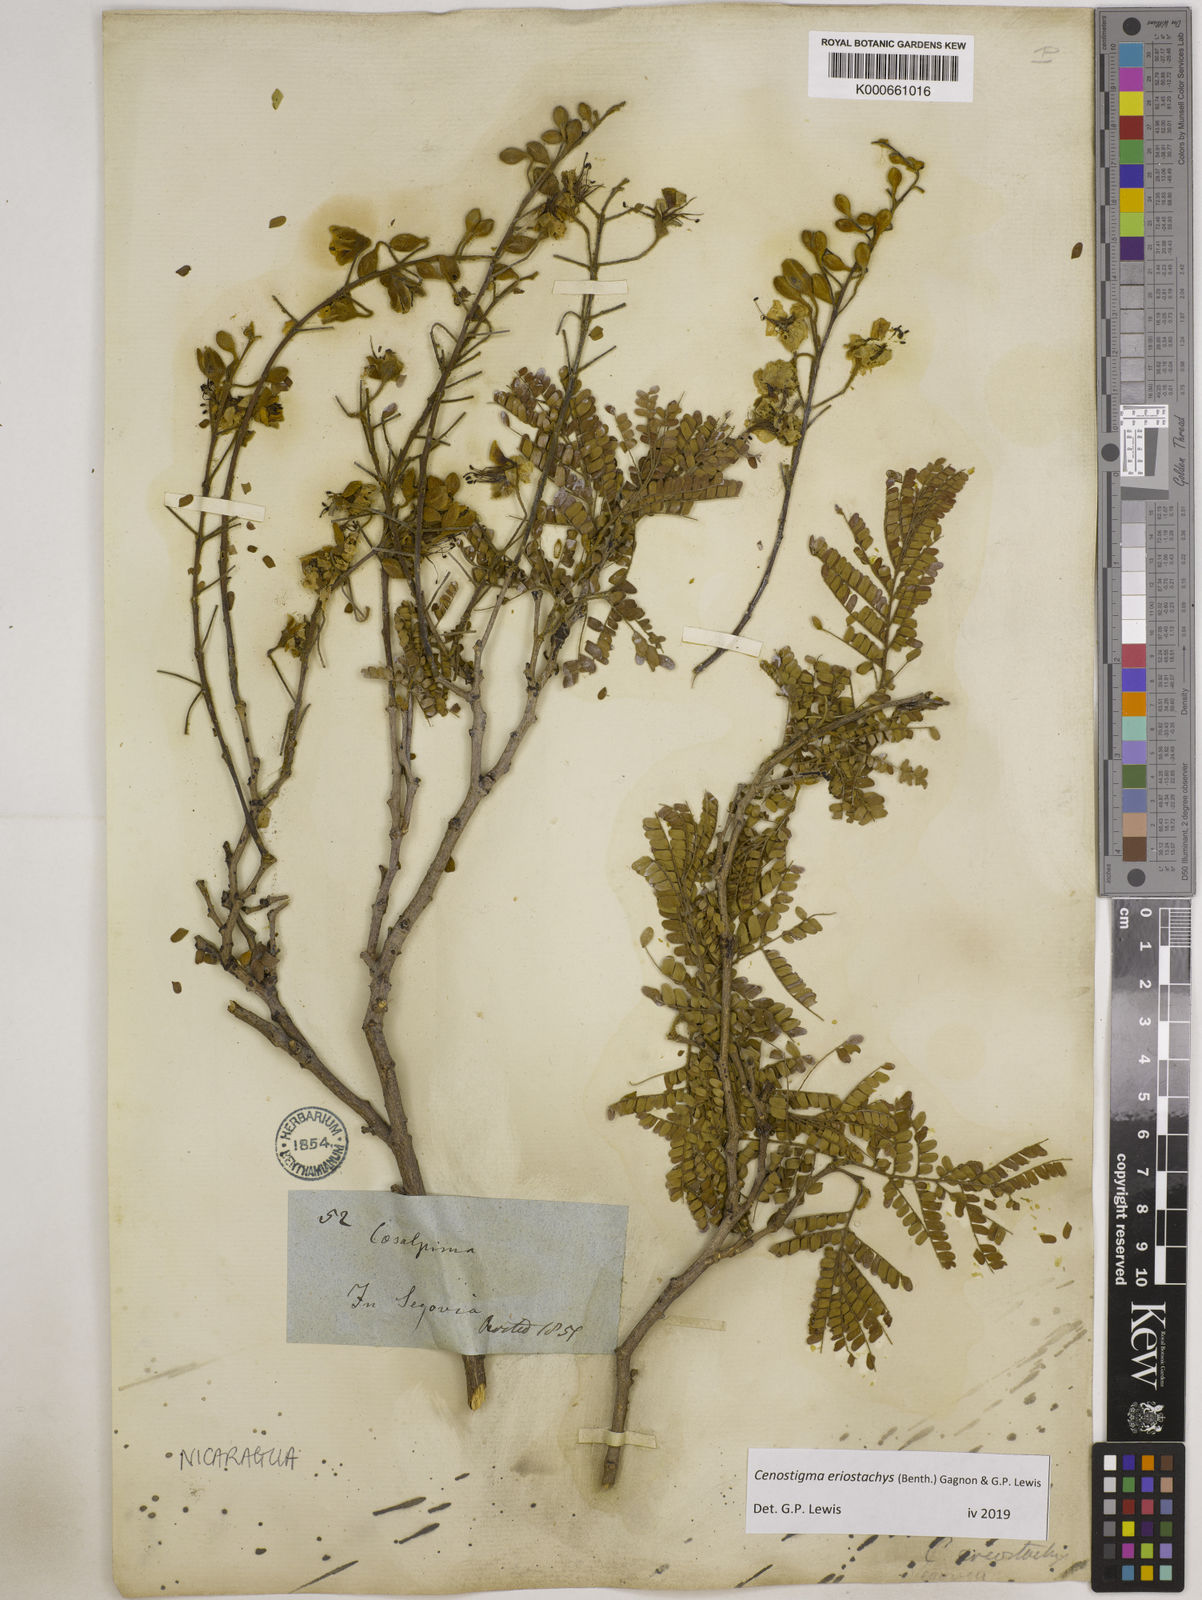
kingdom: Plantae
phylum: Tracheophyta
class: Magnoliopsida
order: Fabales
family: Fabaceae
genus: Cenostigma
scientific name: Cenostigma eriostachys
